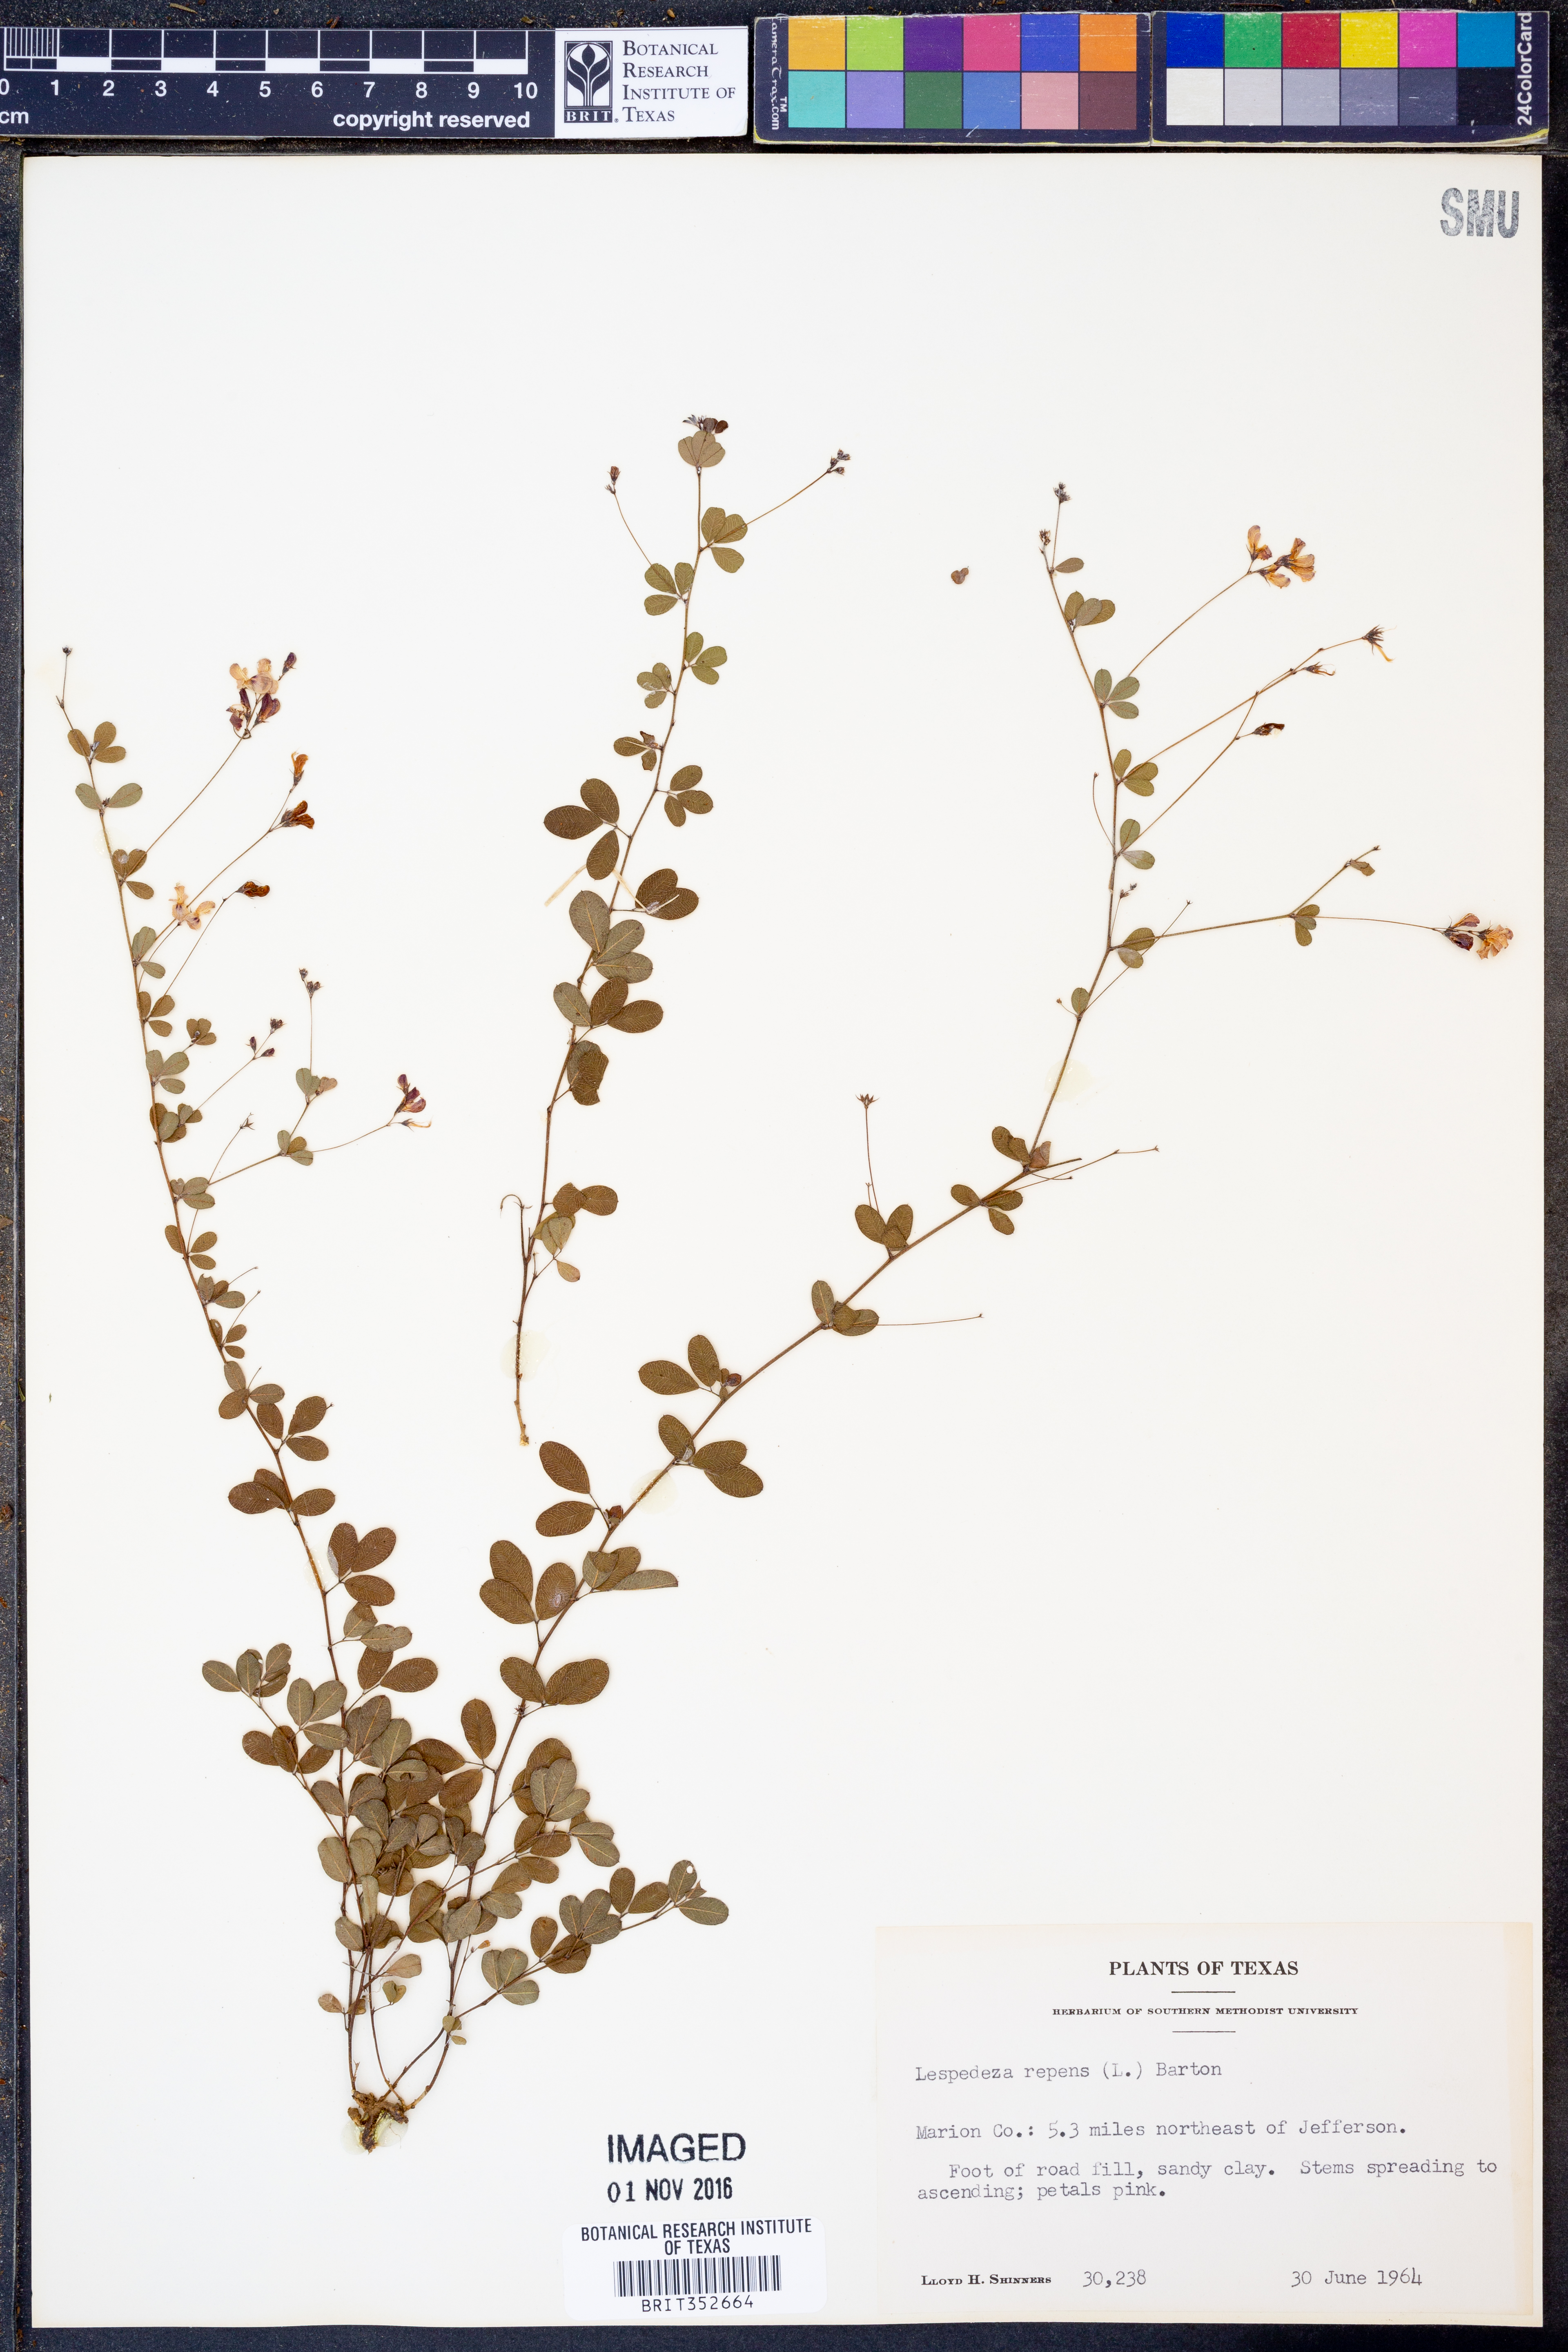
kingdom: Plantae
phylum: Tracheophyta
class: Magnoliopsida
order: Fabales
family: Fabaceae
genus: Lespedeza
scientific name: Lespedeza repens
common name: Creeping bush-clover
